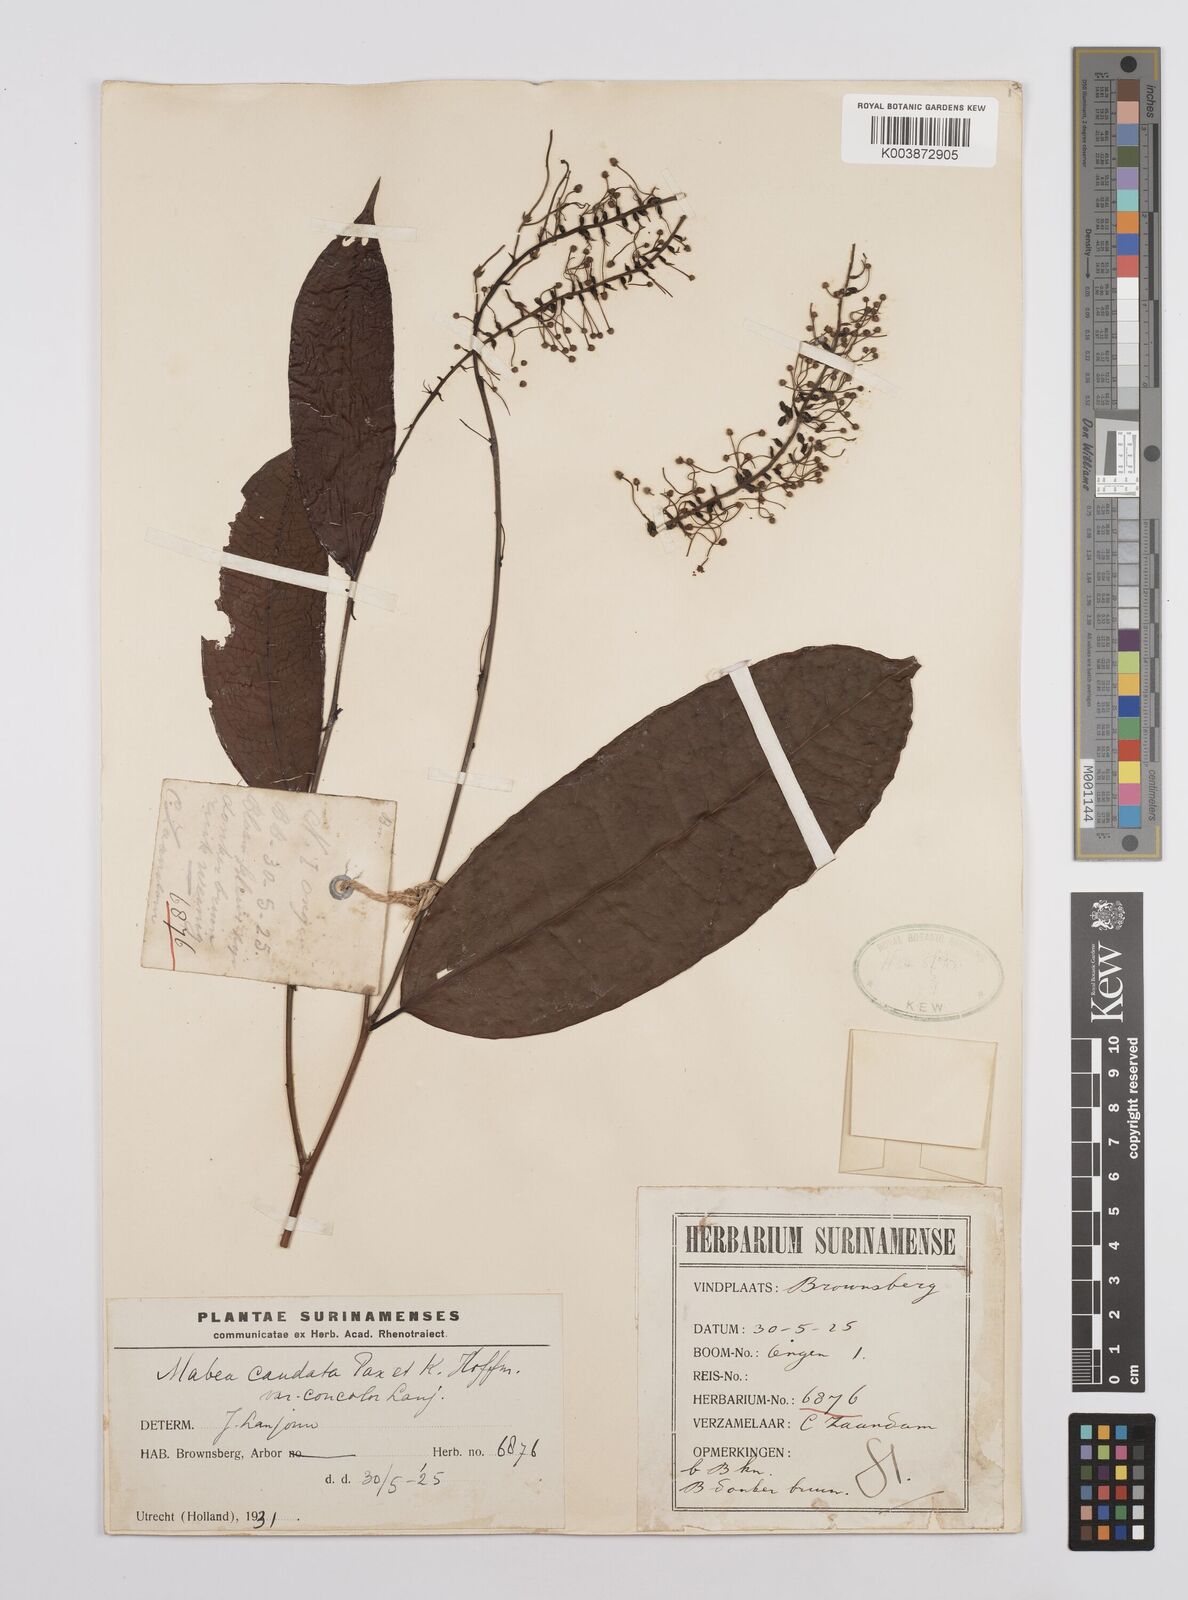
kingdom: Plantae
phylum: Tracheophyta
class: Magnoliopsida
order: Malpighiales
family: Euphorbiaceae
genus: Mabea
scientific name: Mabea piriri
